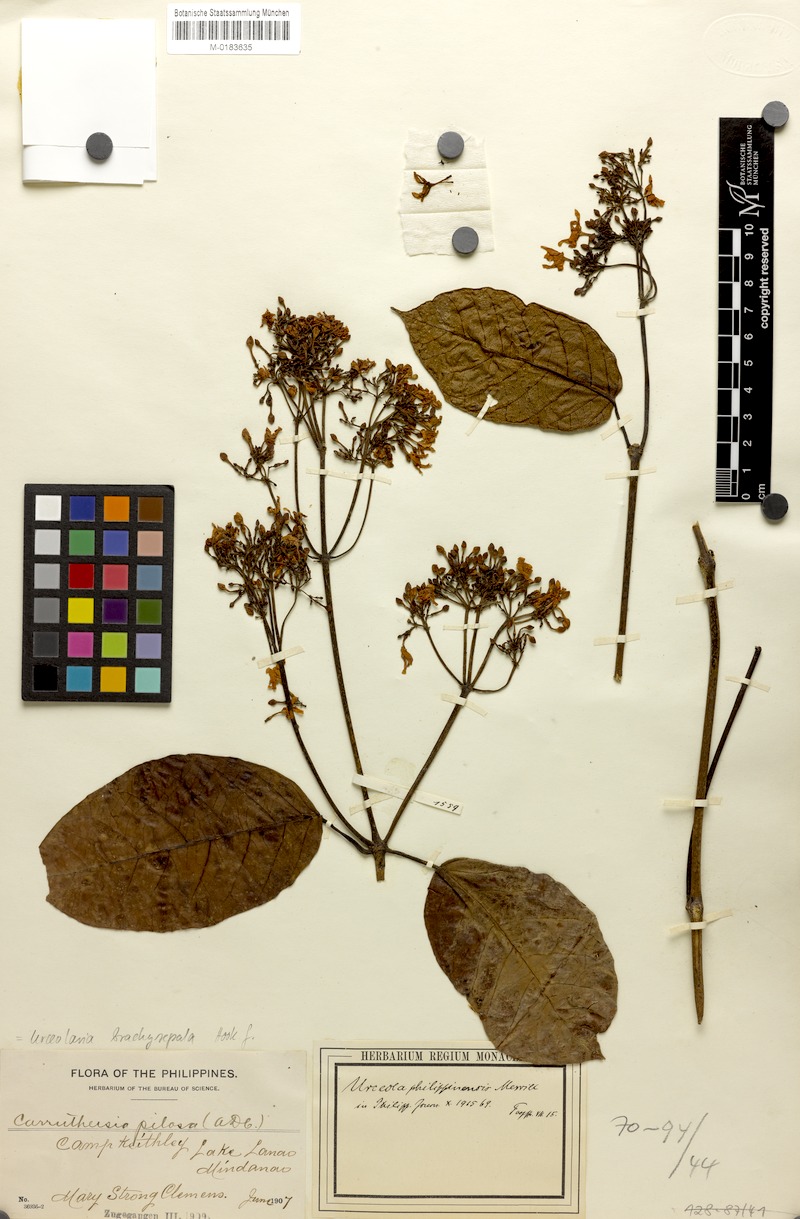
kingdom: Plantae
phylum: Tracheophyta
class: Magnoliopsida
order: Gentianales
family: Apocynaceae
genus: Urceola
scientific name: Urceola brachysepala
